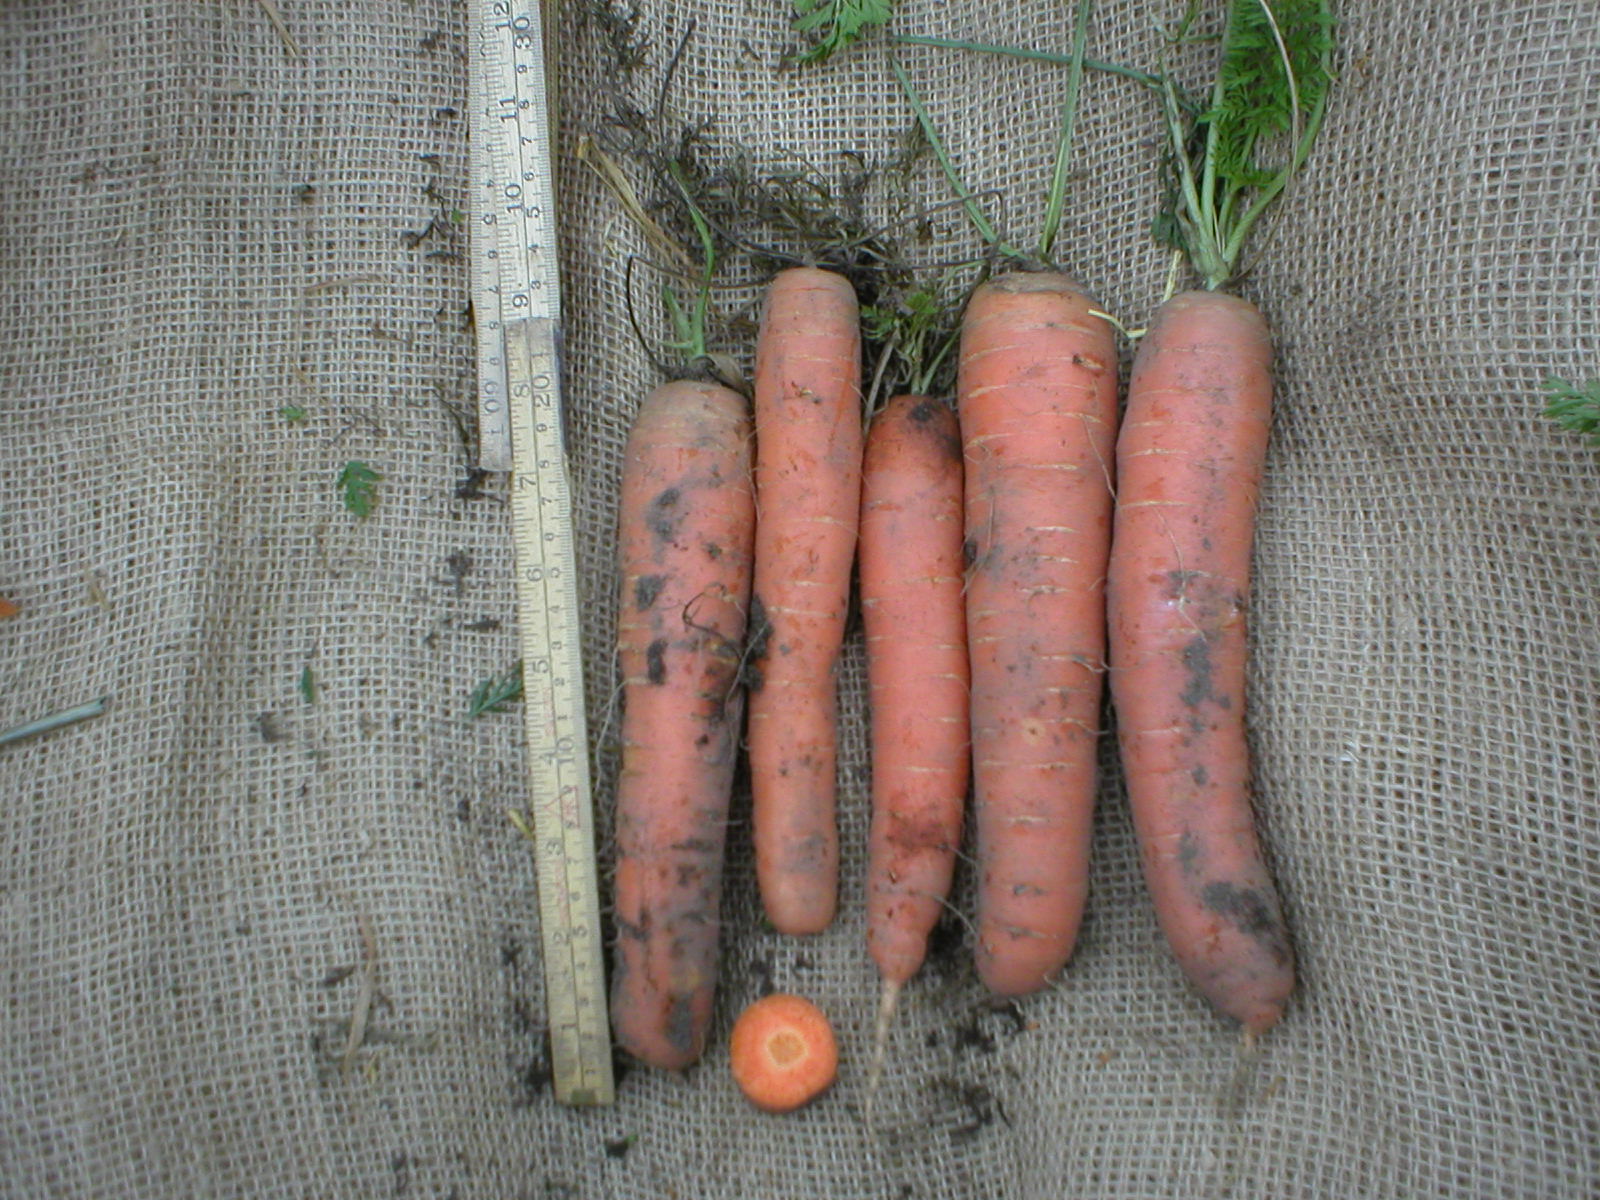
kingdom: Plantae
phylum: Tracheophyta
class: Magnoliopsida
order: Apiales
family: Apiaceae
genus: Daucus
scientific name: Daucus carota
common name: Wild carrot
